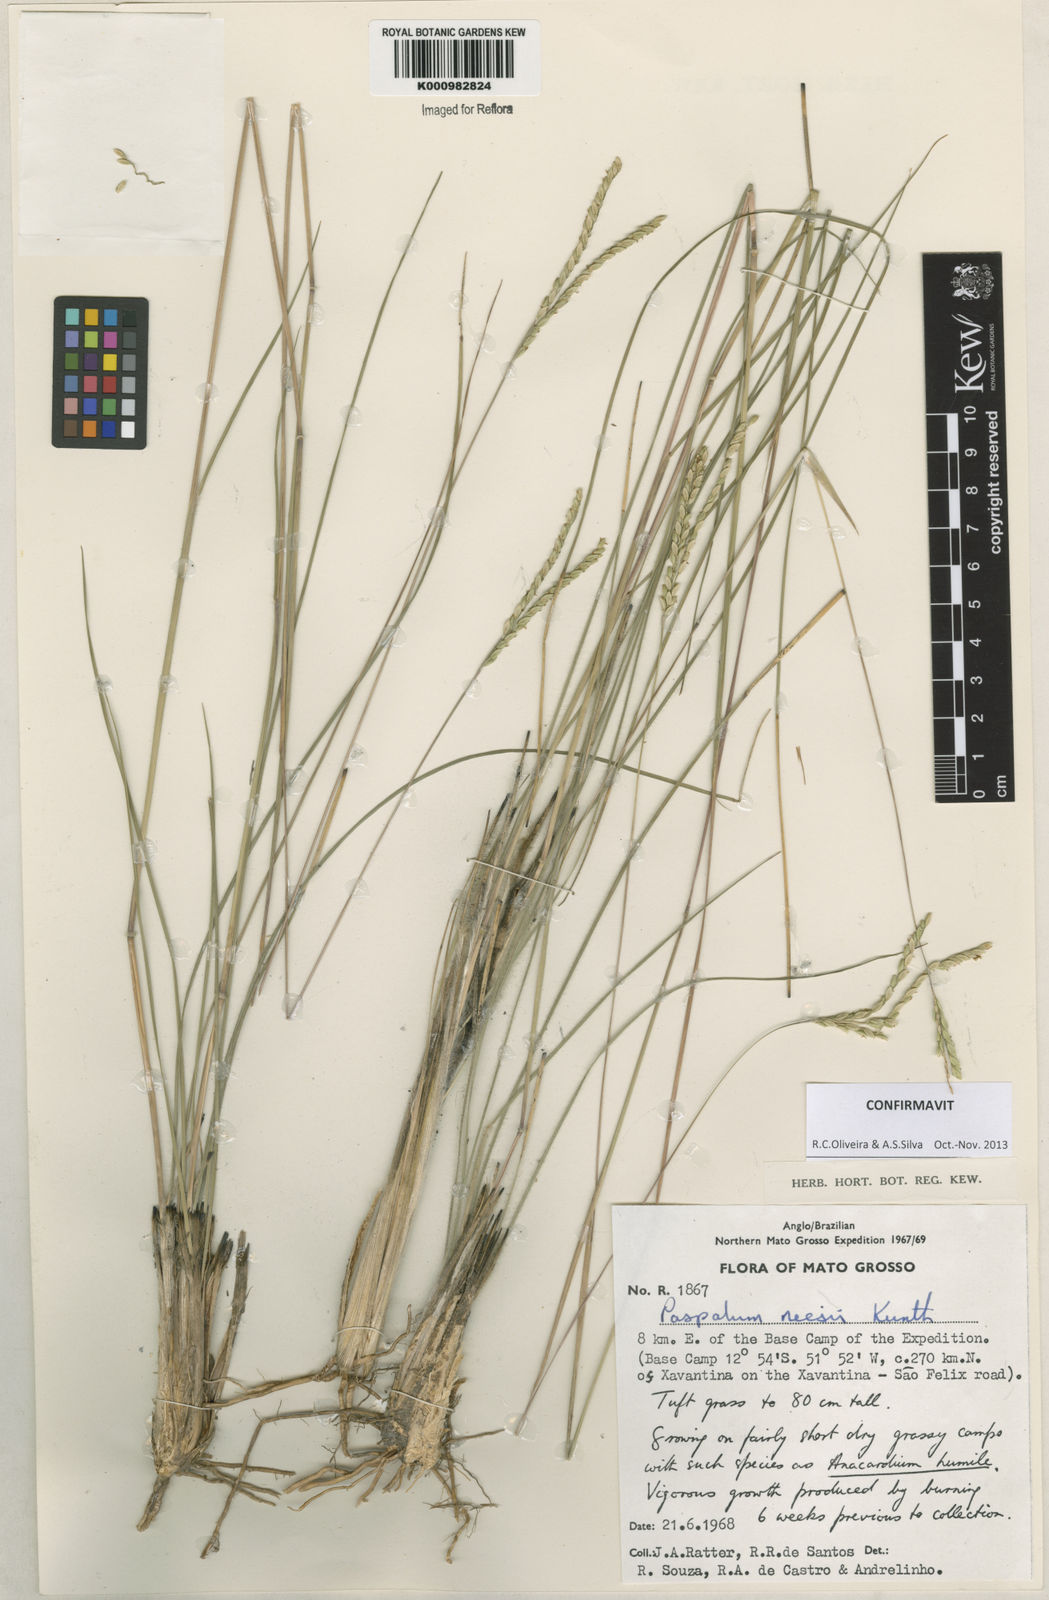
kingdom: Plantae
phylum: Tracheophyta
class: Liliopsida
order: Poales
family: Poaceae
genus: Paspalum
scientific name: Paspalum lineare
